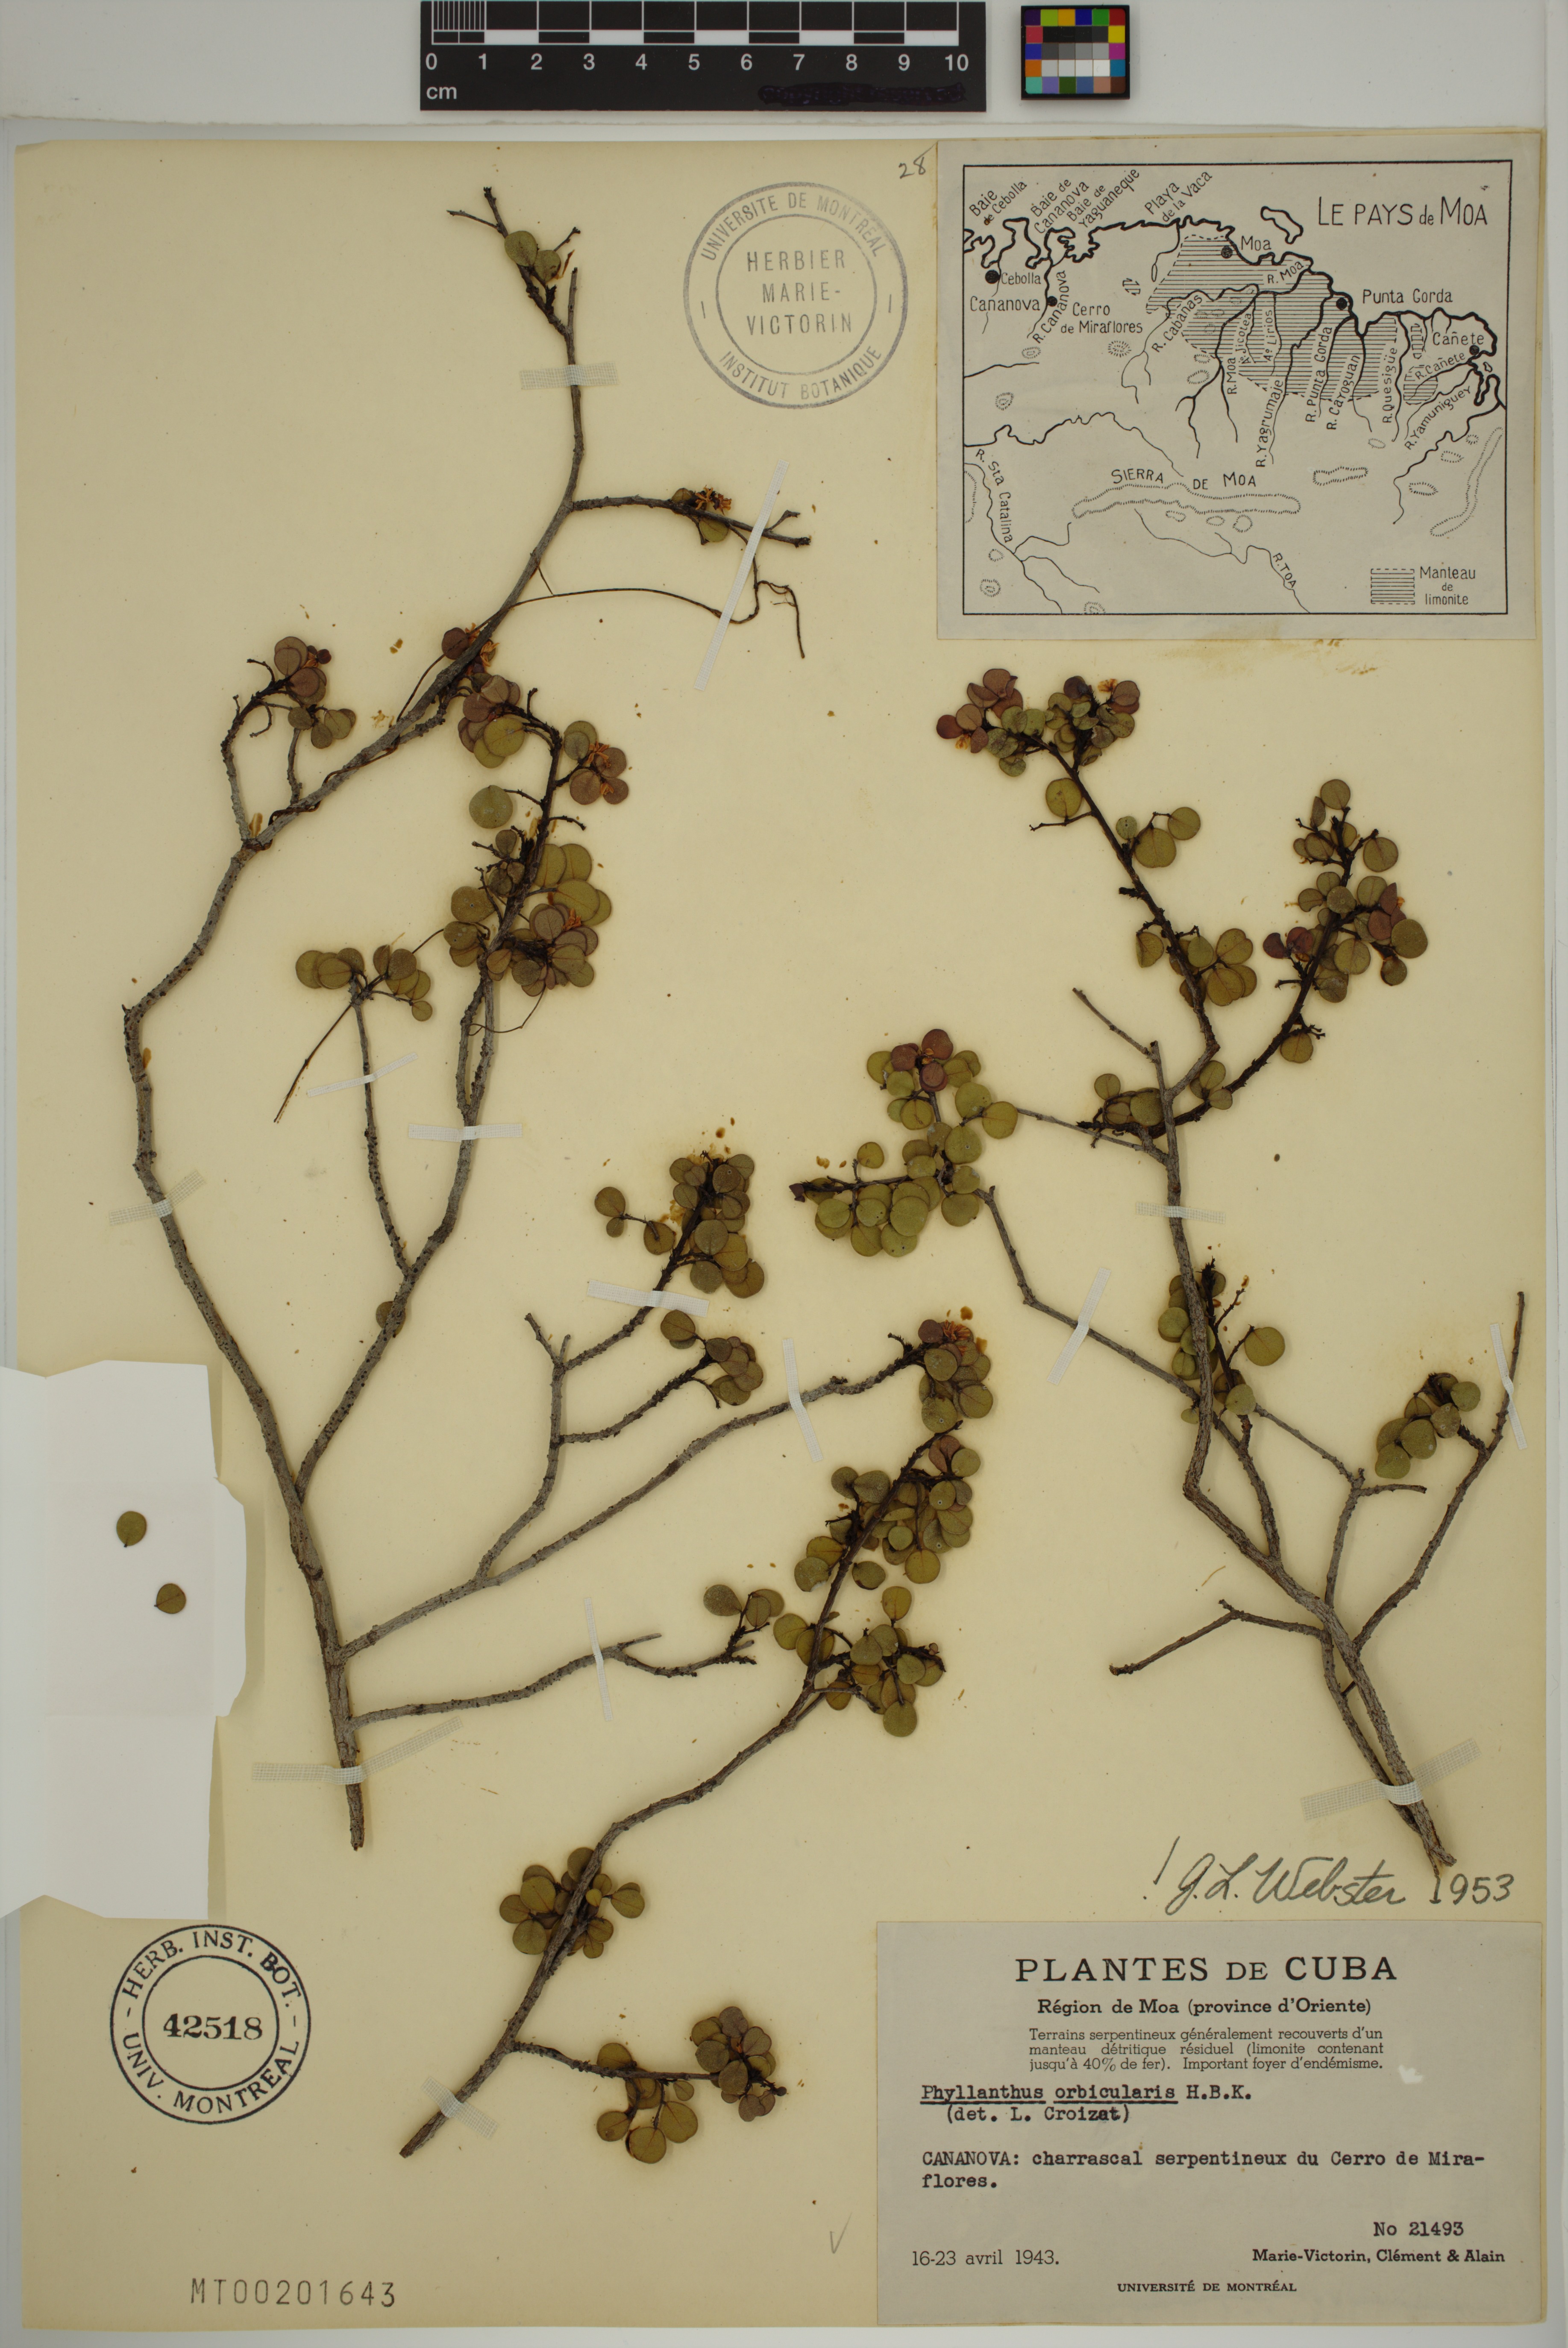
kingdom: Plantae
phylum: Tracheophyta
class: Magnoliopsida
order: Malpighiales
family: Phyllanthaceae
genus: Phyllanthus
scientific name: Phyllanthus orbicularis
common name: Wedge leaf-flower
